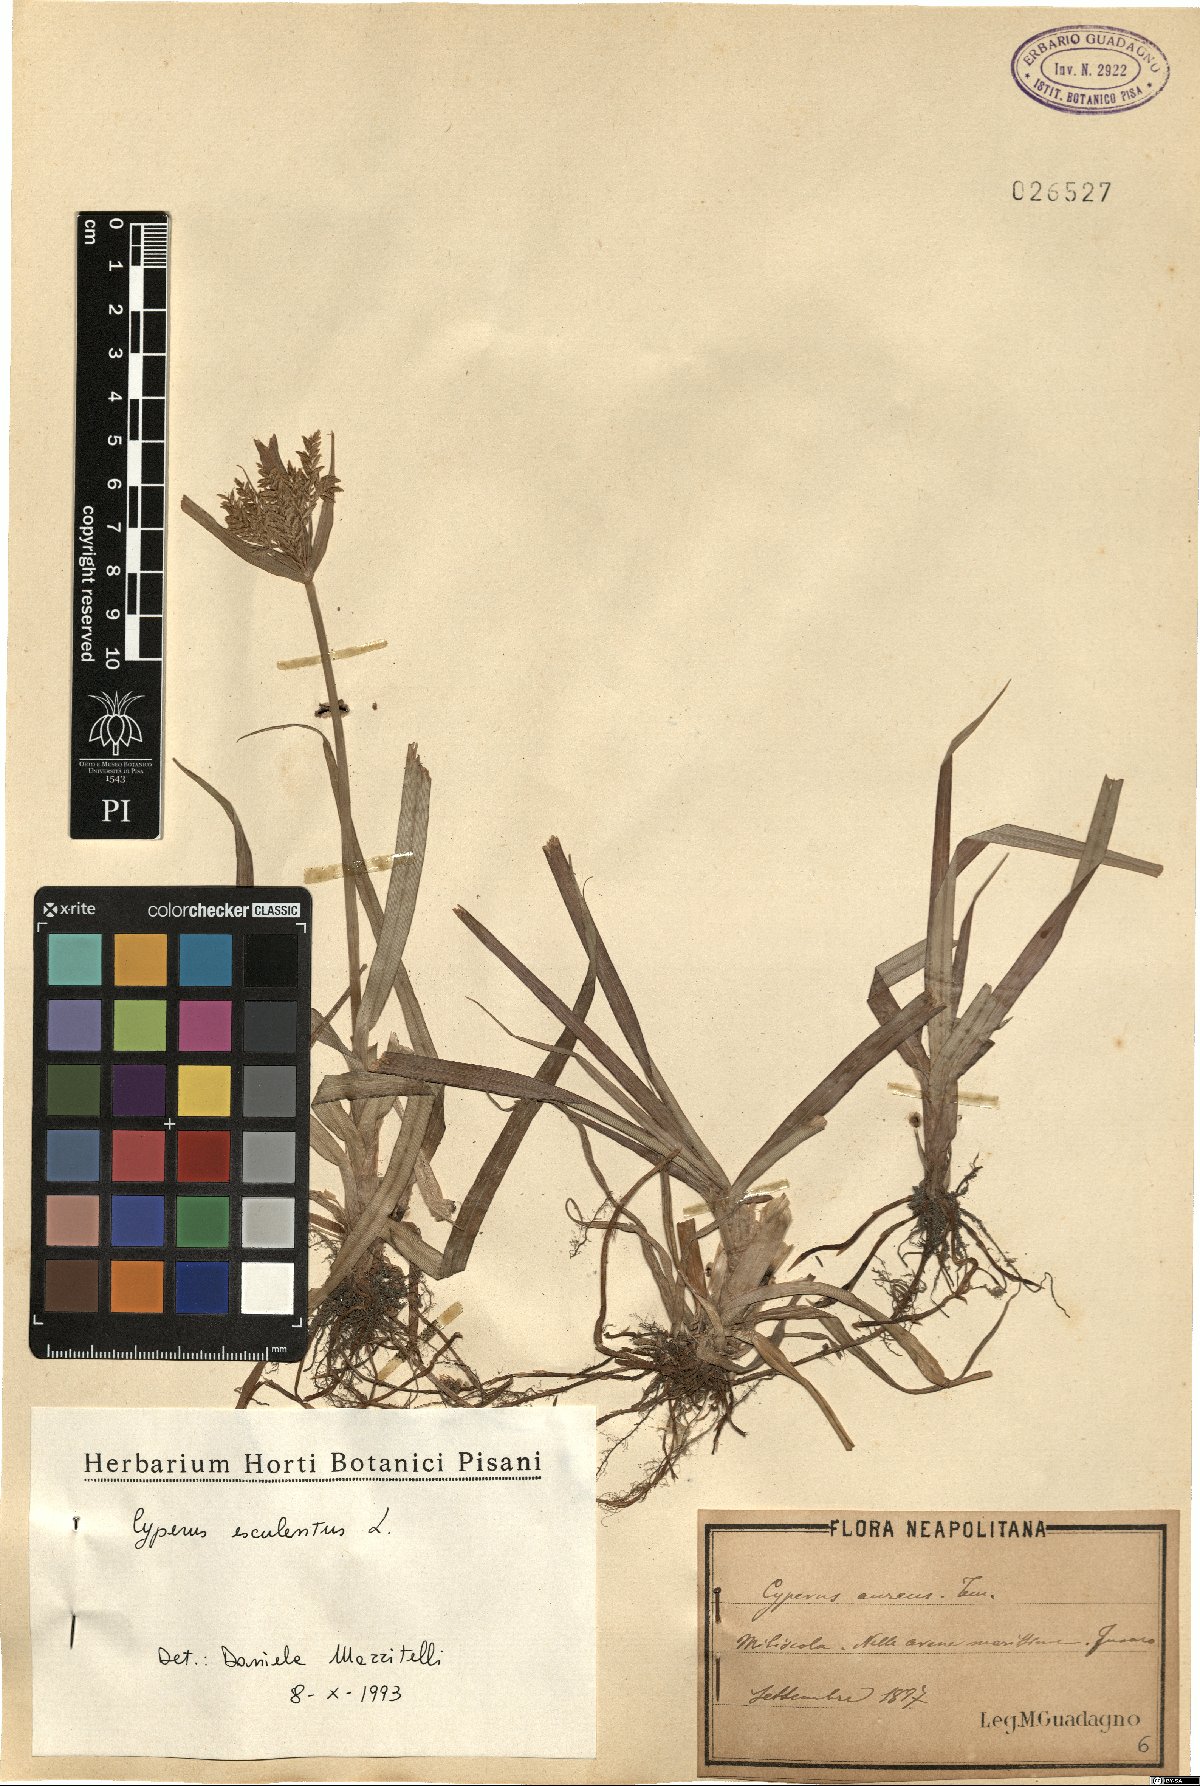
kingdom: Plantae
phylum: Tracheophyta
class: Liliopsida
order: Poales
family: Cyperaceae
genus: Cyperus
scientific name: Cyperus esculentus
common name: Yellow nutsedge
